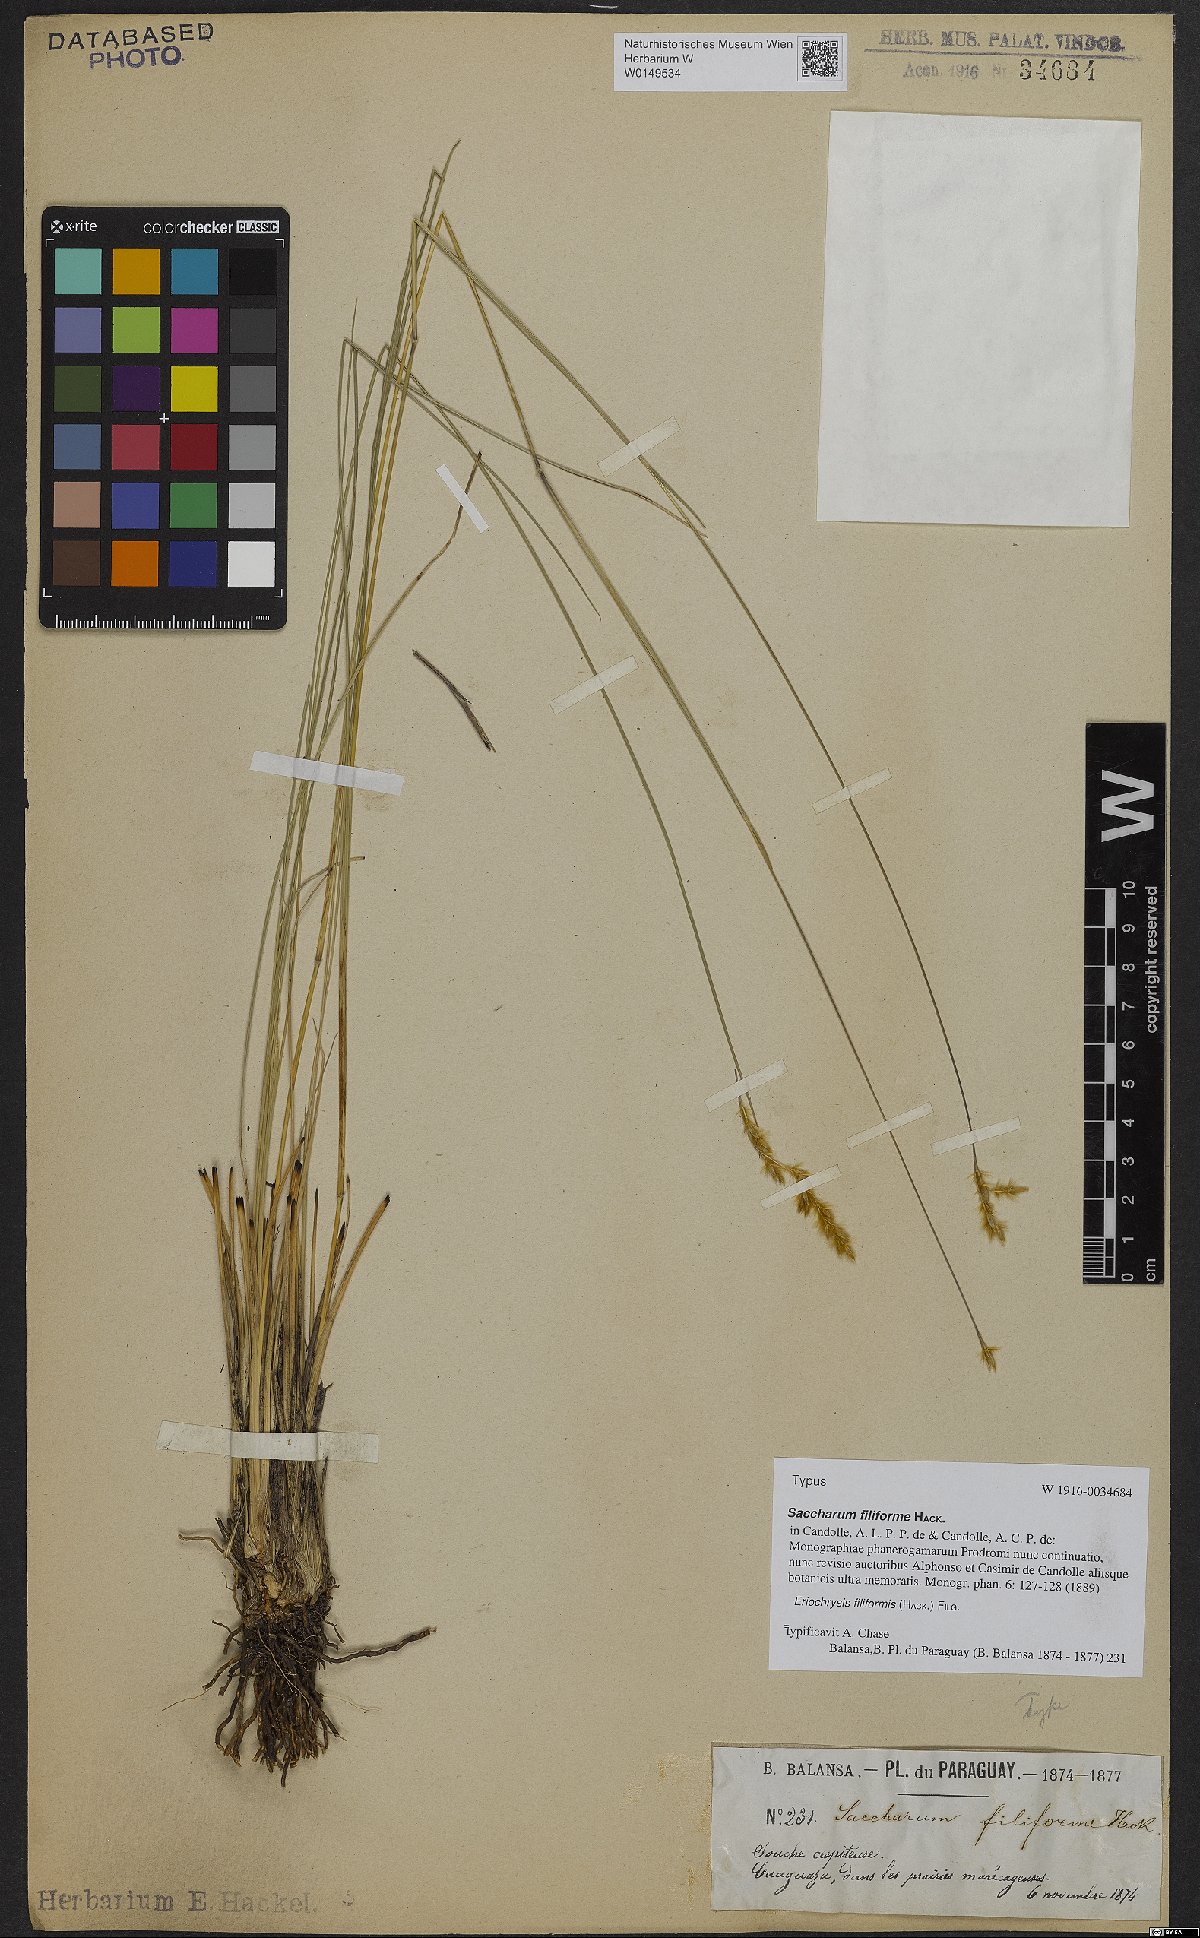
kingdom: Plantae
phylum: Tracheophyta
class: Liliopsida
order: Poales
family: Poaceae
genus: Eriochrysis
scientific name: Eriochrysis filiformis
